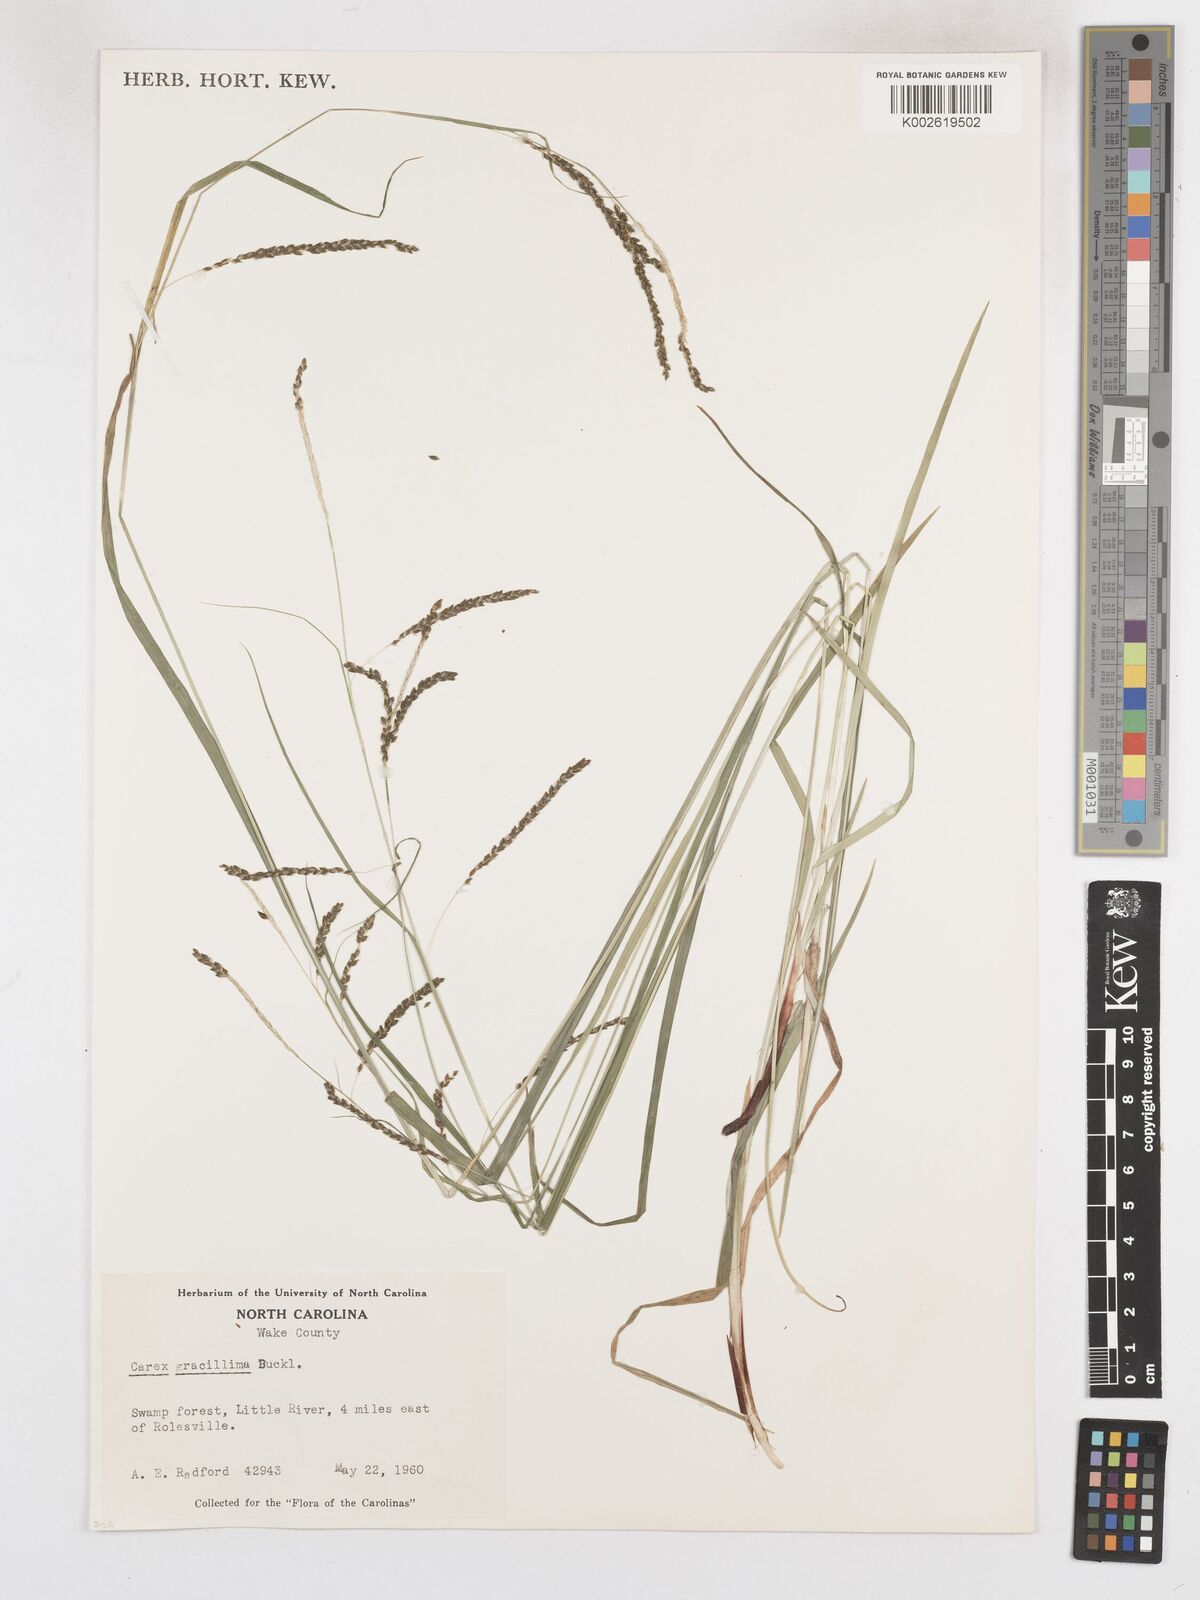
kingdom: Plantae
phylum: Tracheophyta
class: Liliopsida
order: Poales
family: Cyperaceae
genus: Carex
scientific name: Carex gracillima
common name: Graceful sedge
